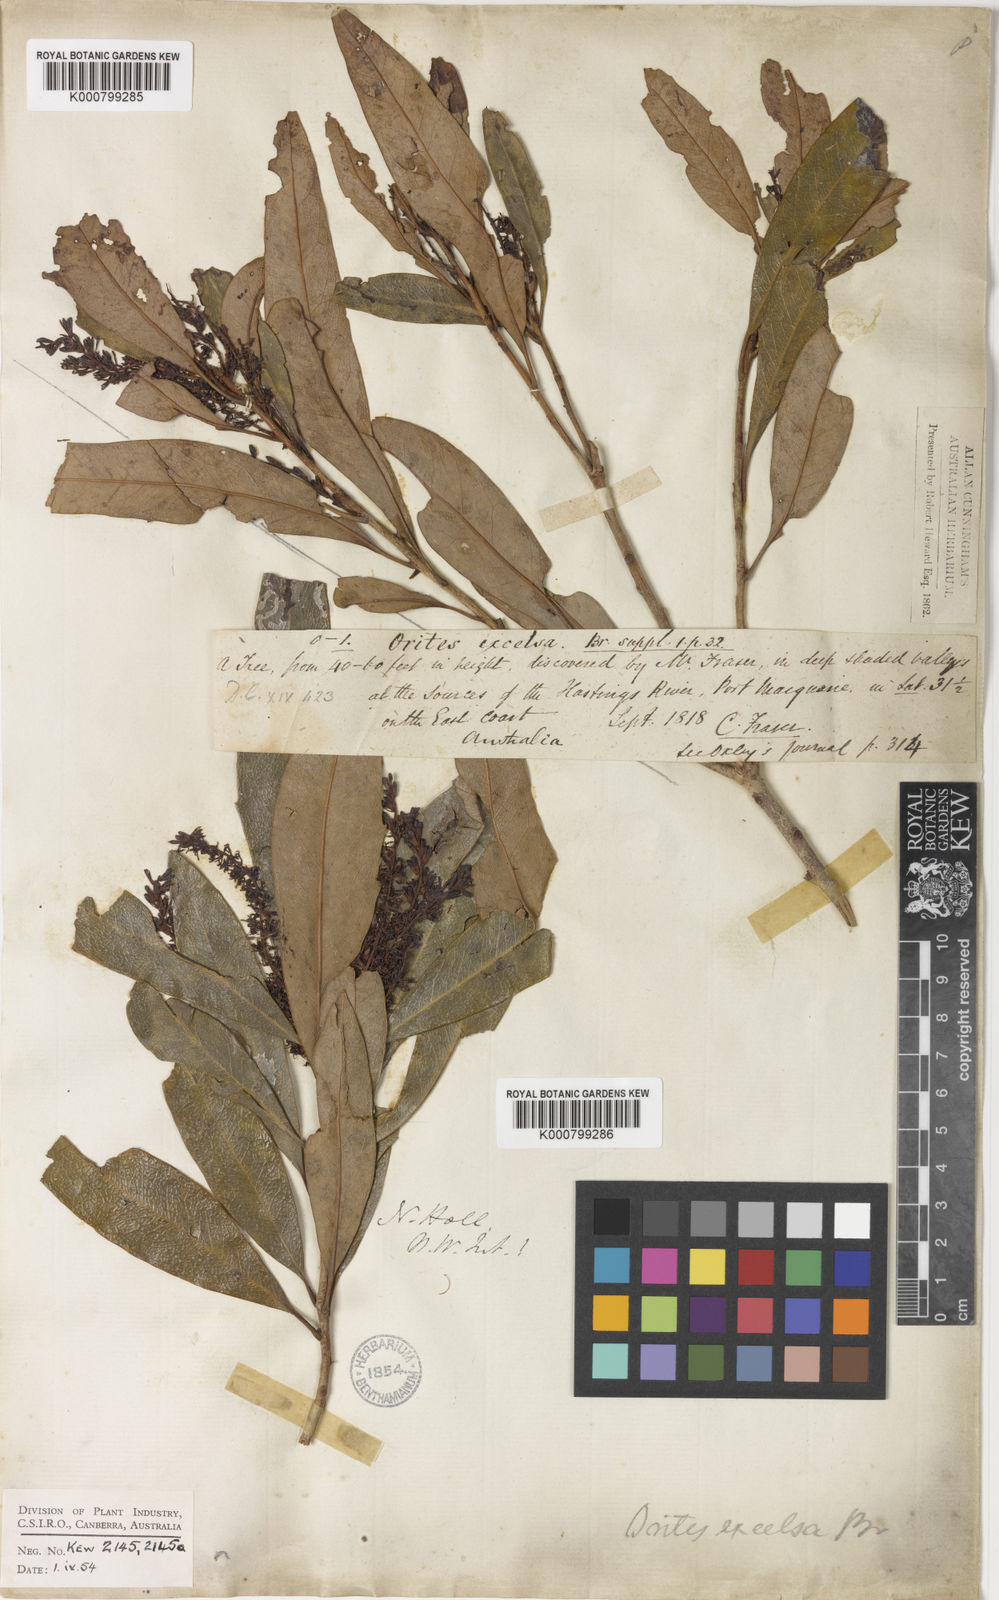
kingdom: Plantae
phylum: Tracheophyta
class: Magnoliopsida
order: Proteales
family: Proteaceae
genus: Orites
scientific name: Orites excelsus
